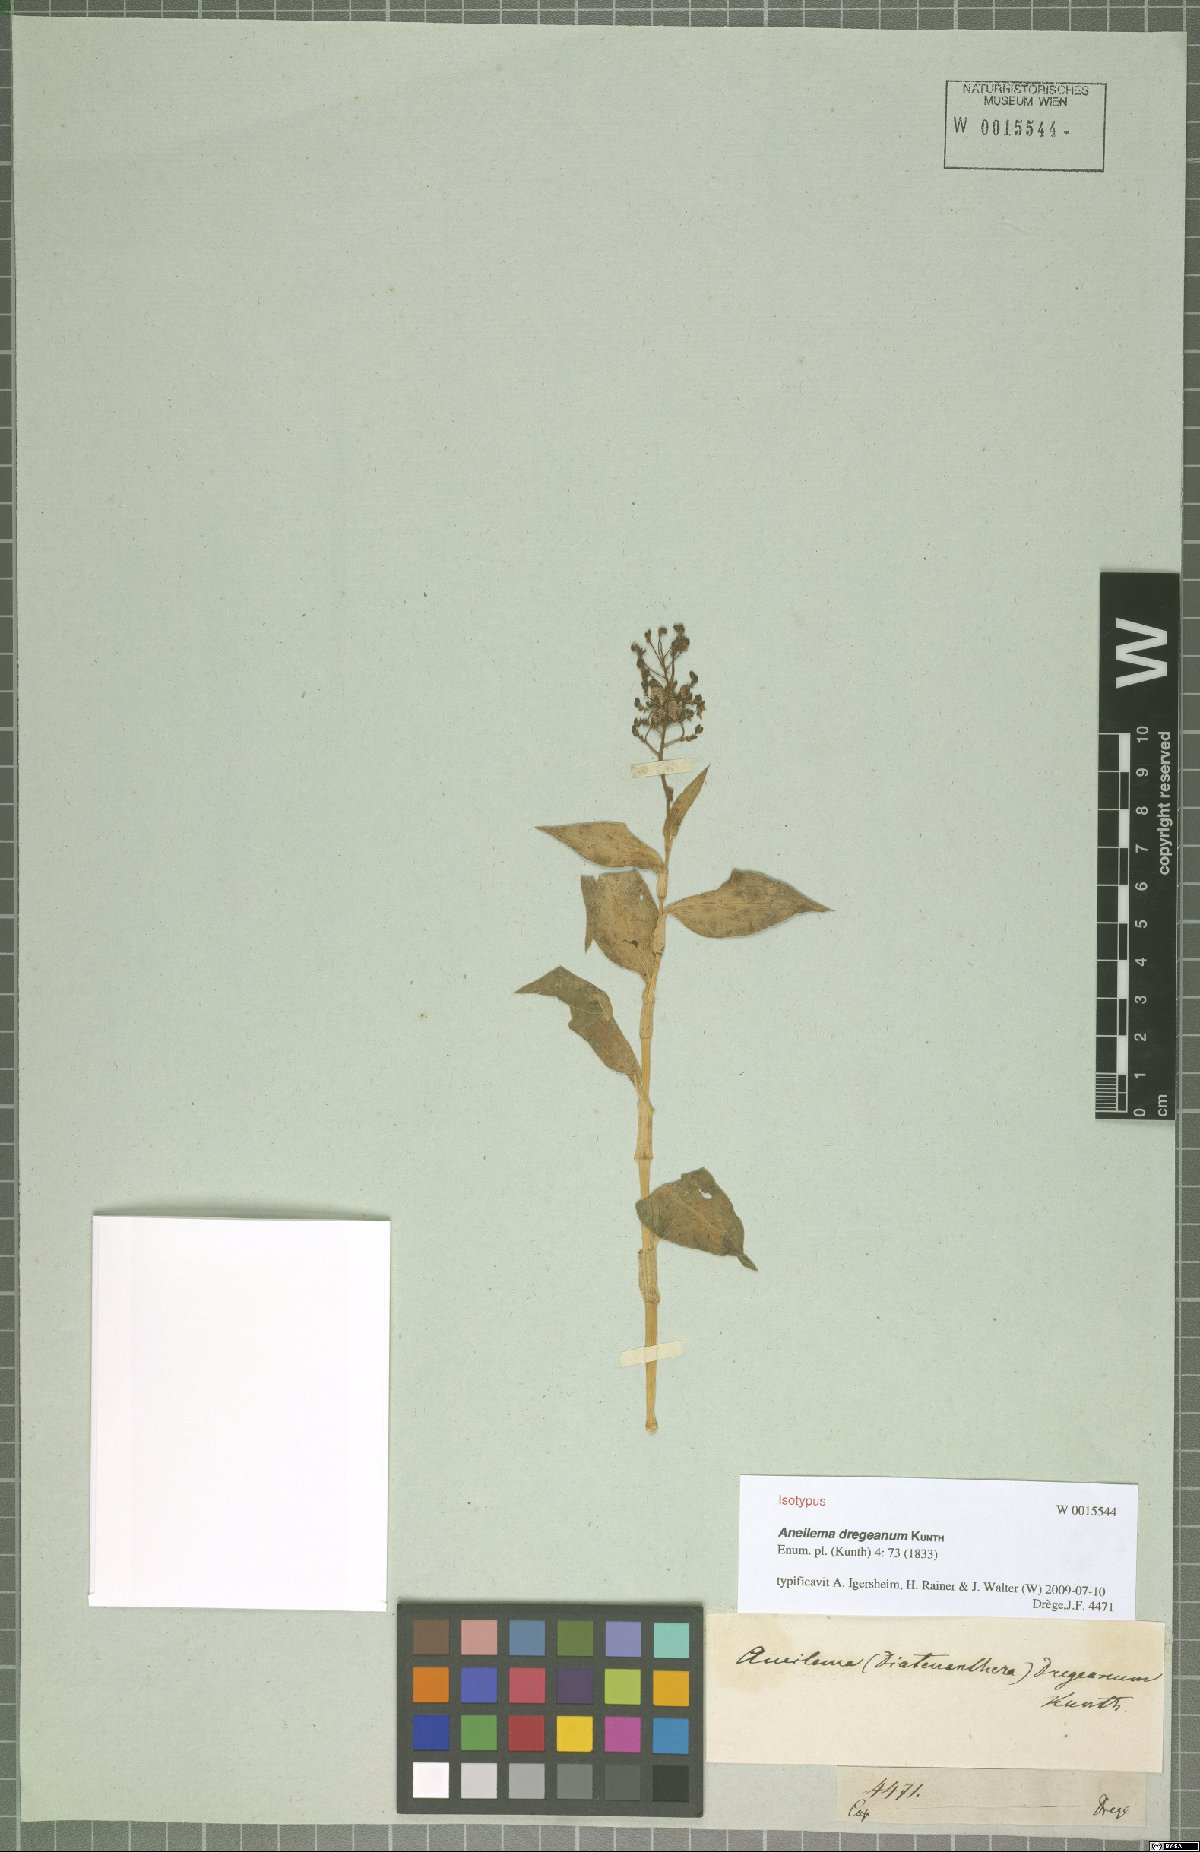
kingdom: Plantae
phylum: Tracheophyta
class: Liliopsida
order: Commelinales
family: Commelinaceae
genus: Aneilema
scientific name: Aneilema dregeanum
